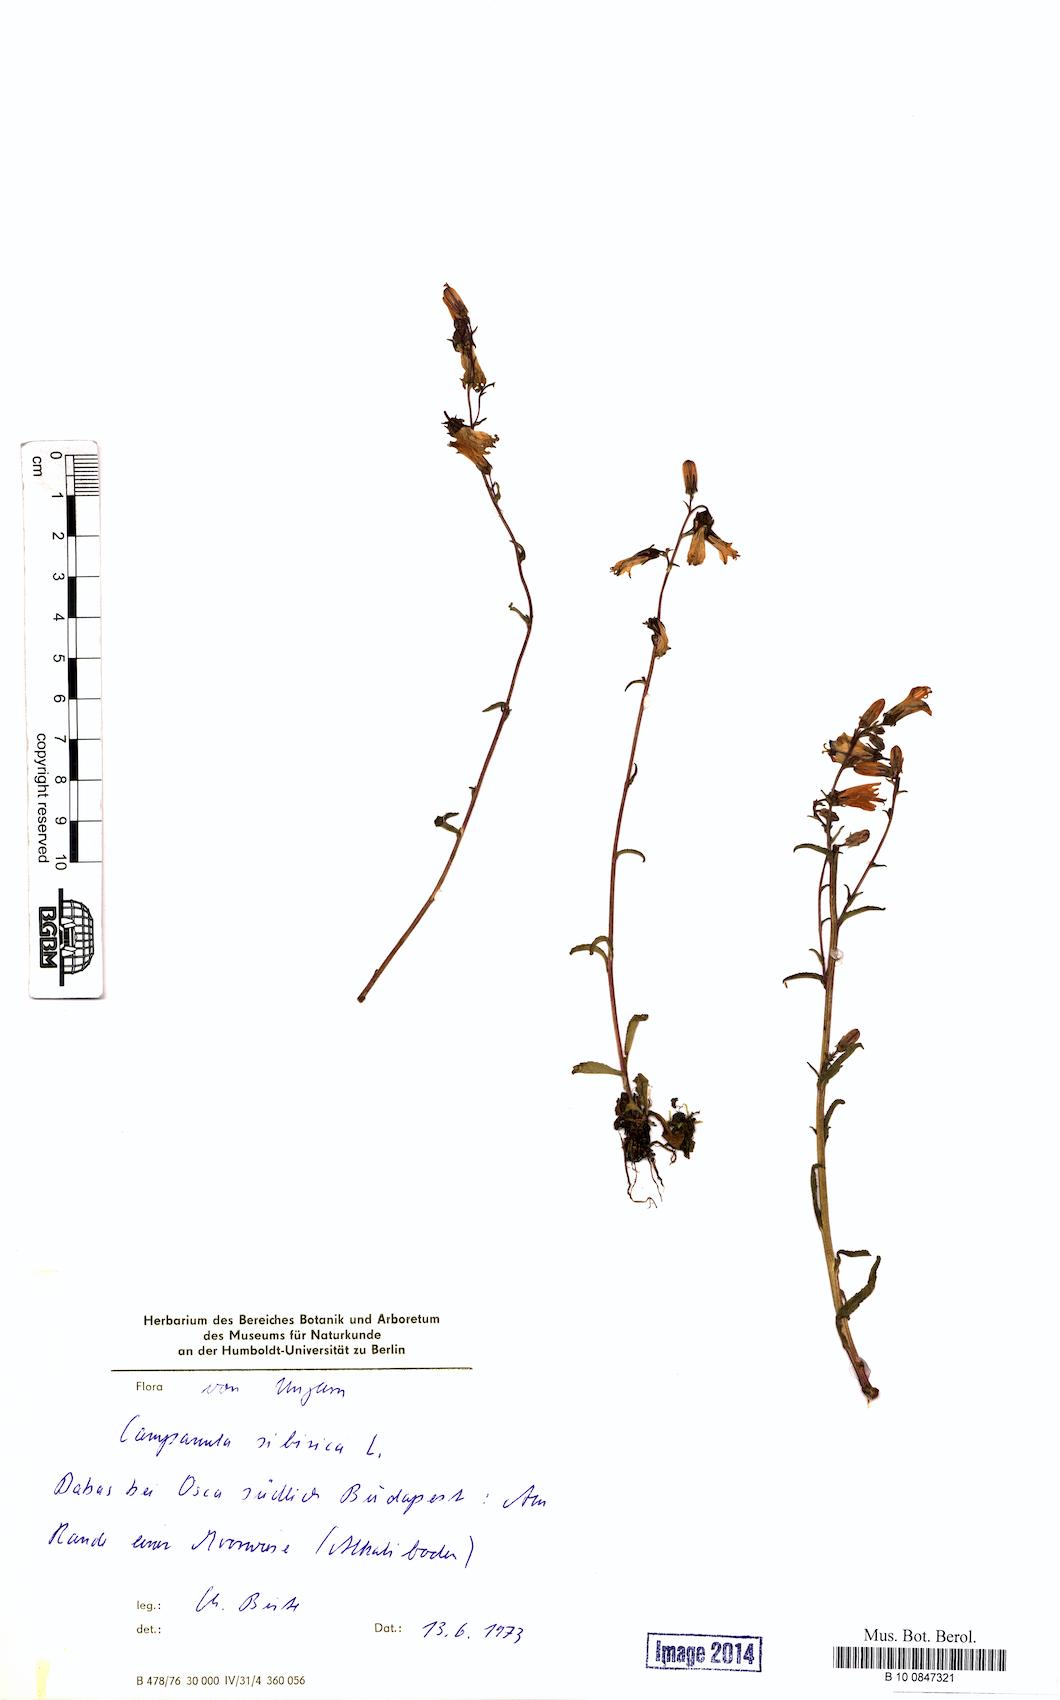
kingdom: Plantae
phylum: Tracheophyta
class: Magnoliopsida
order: Asterales
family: Campanulaceae
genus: Campanula
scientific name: Campanula sibirica
